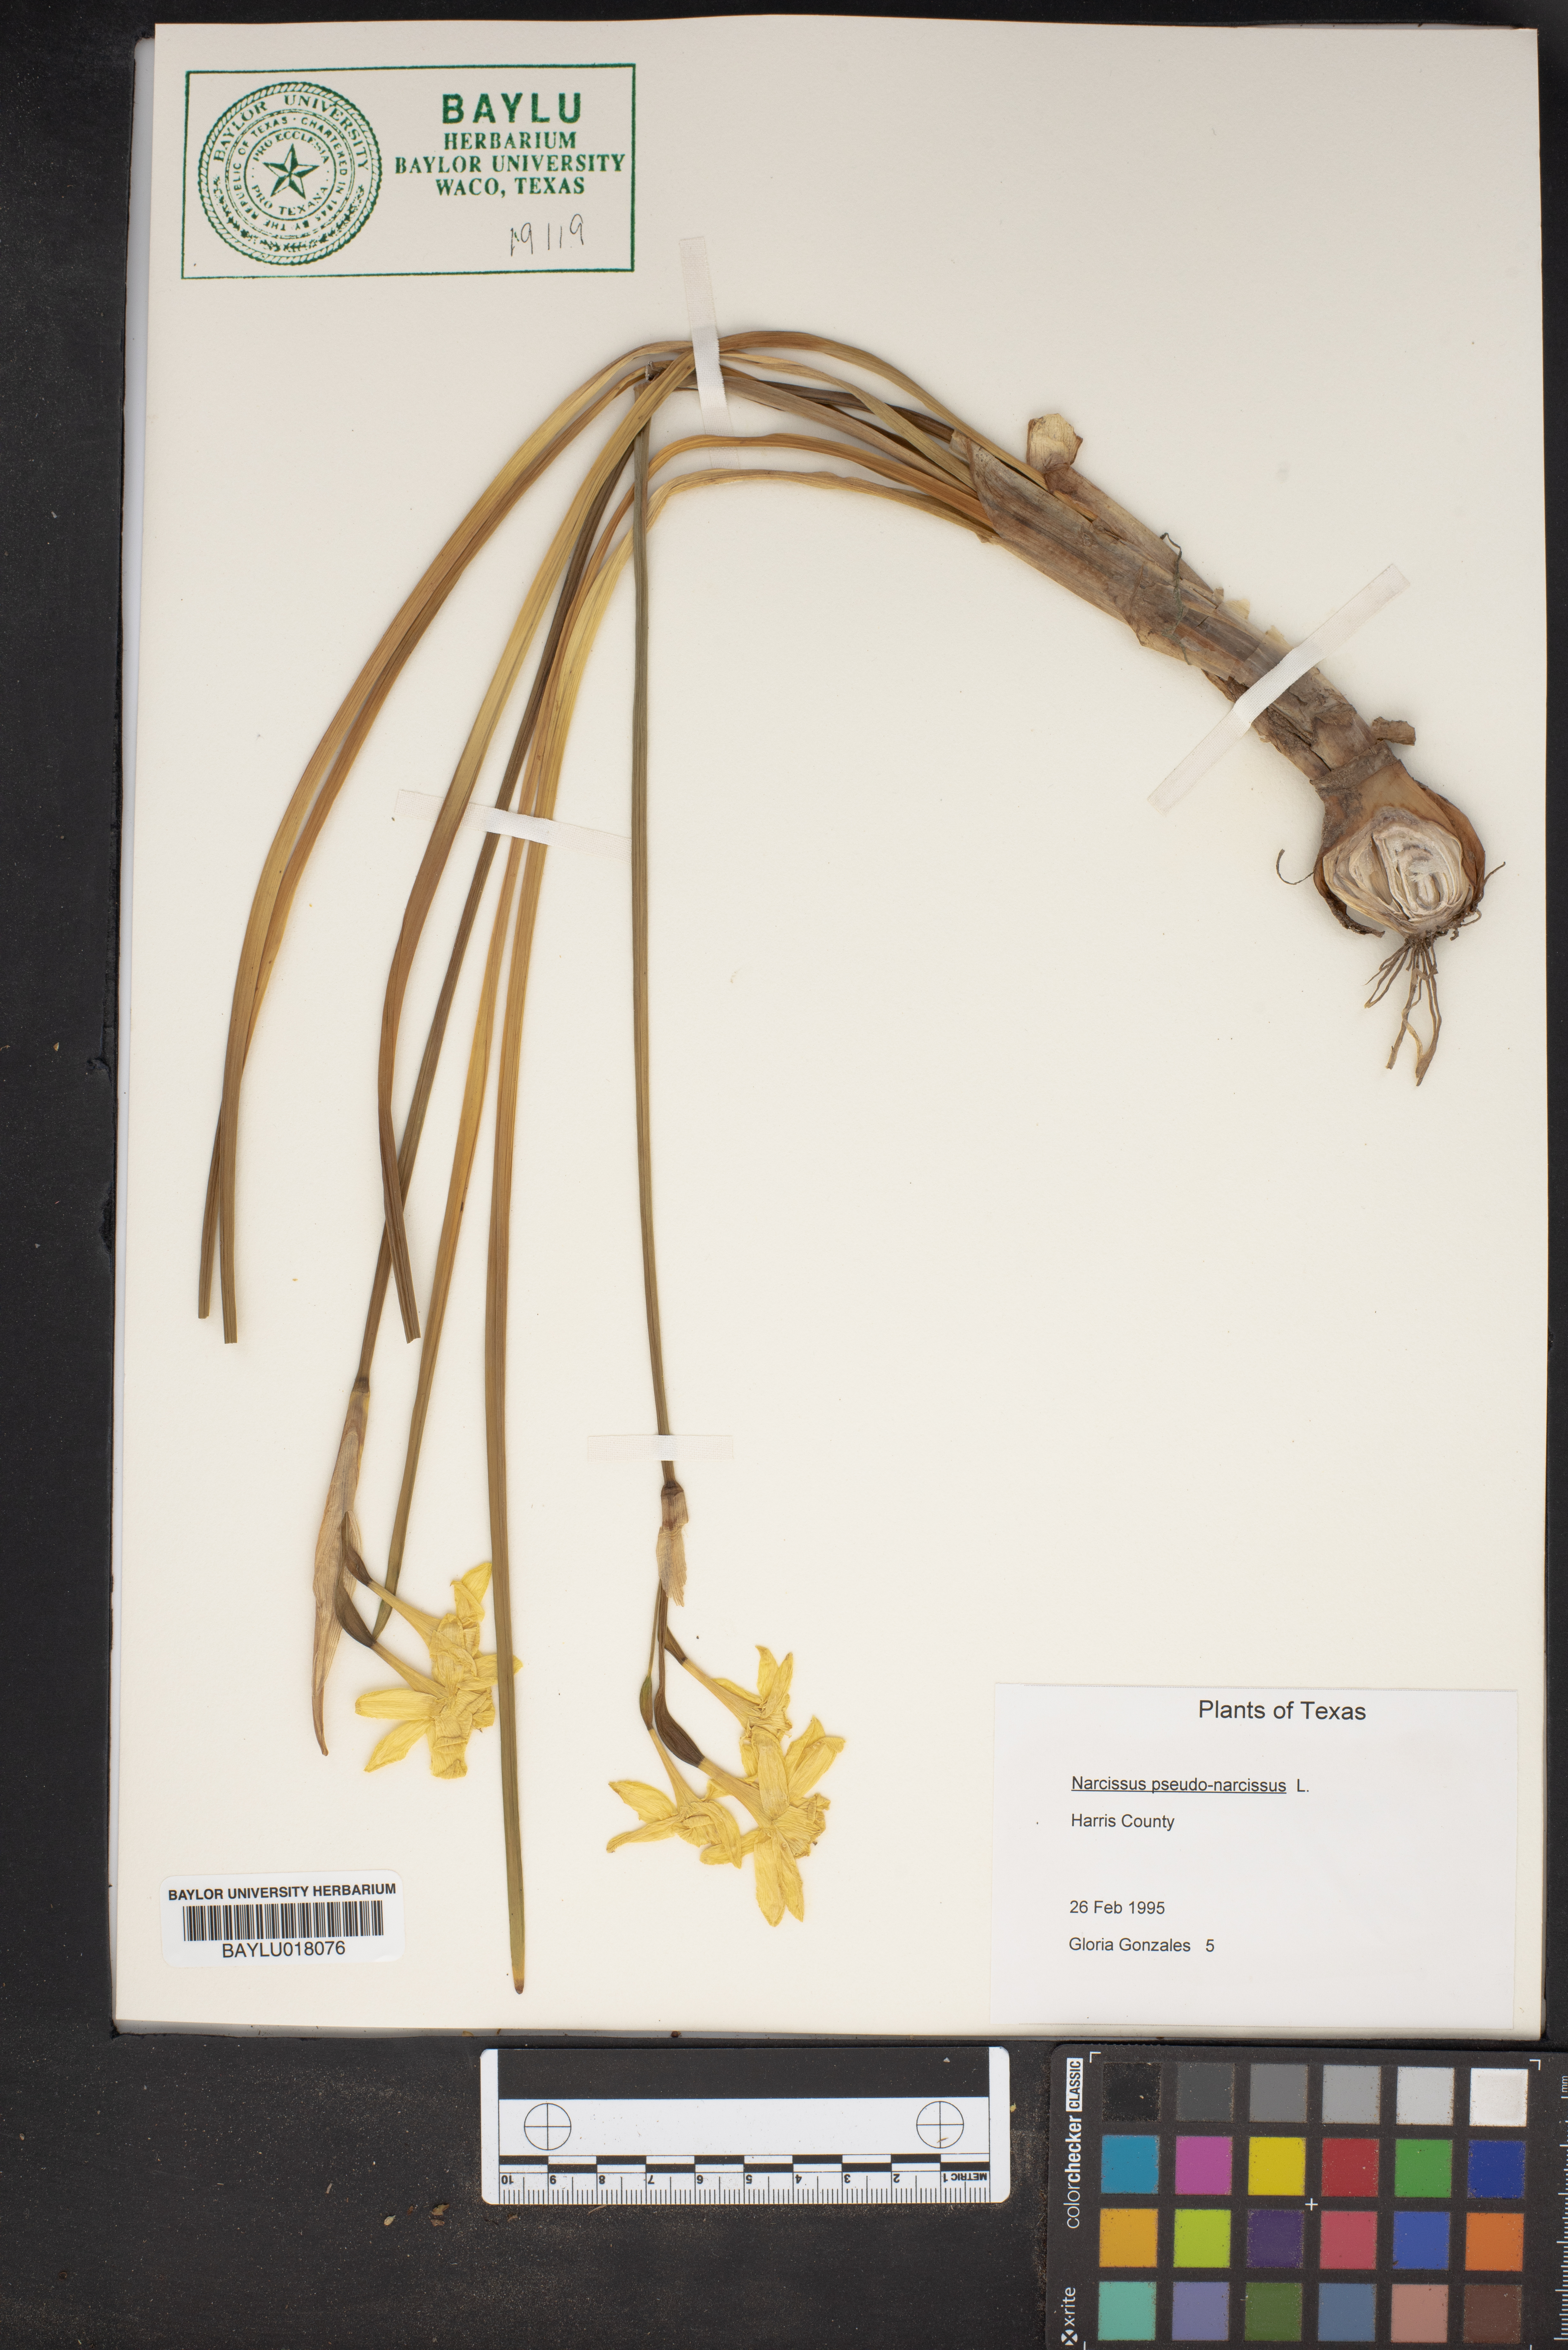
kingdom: Plantae
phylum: Tracheophyta
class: Liliopsida
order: Asparagales
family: Amaryllidaceae
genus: Narcissus
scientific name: Narcissus pseudonarcissus
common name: Daffodil
